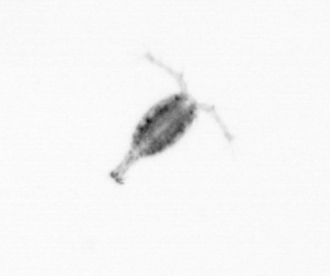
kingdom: Animalia
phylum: Arthropoda
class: Copepoda
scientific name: Copepoda
